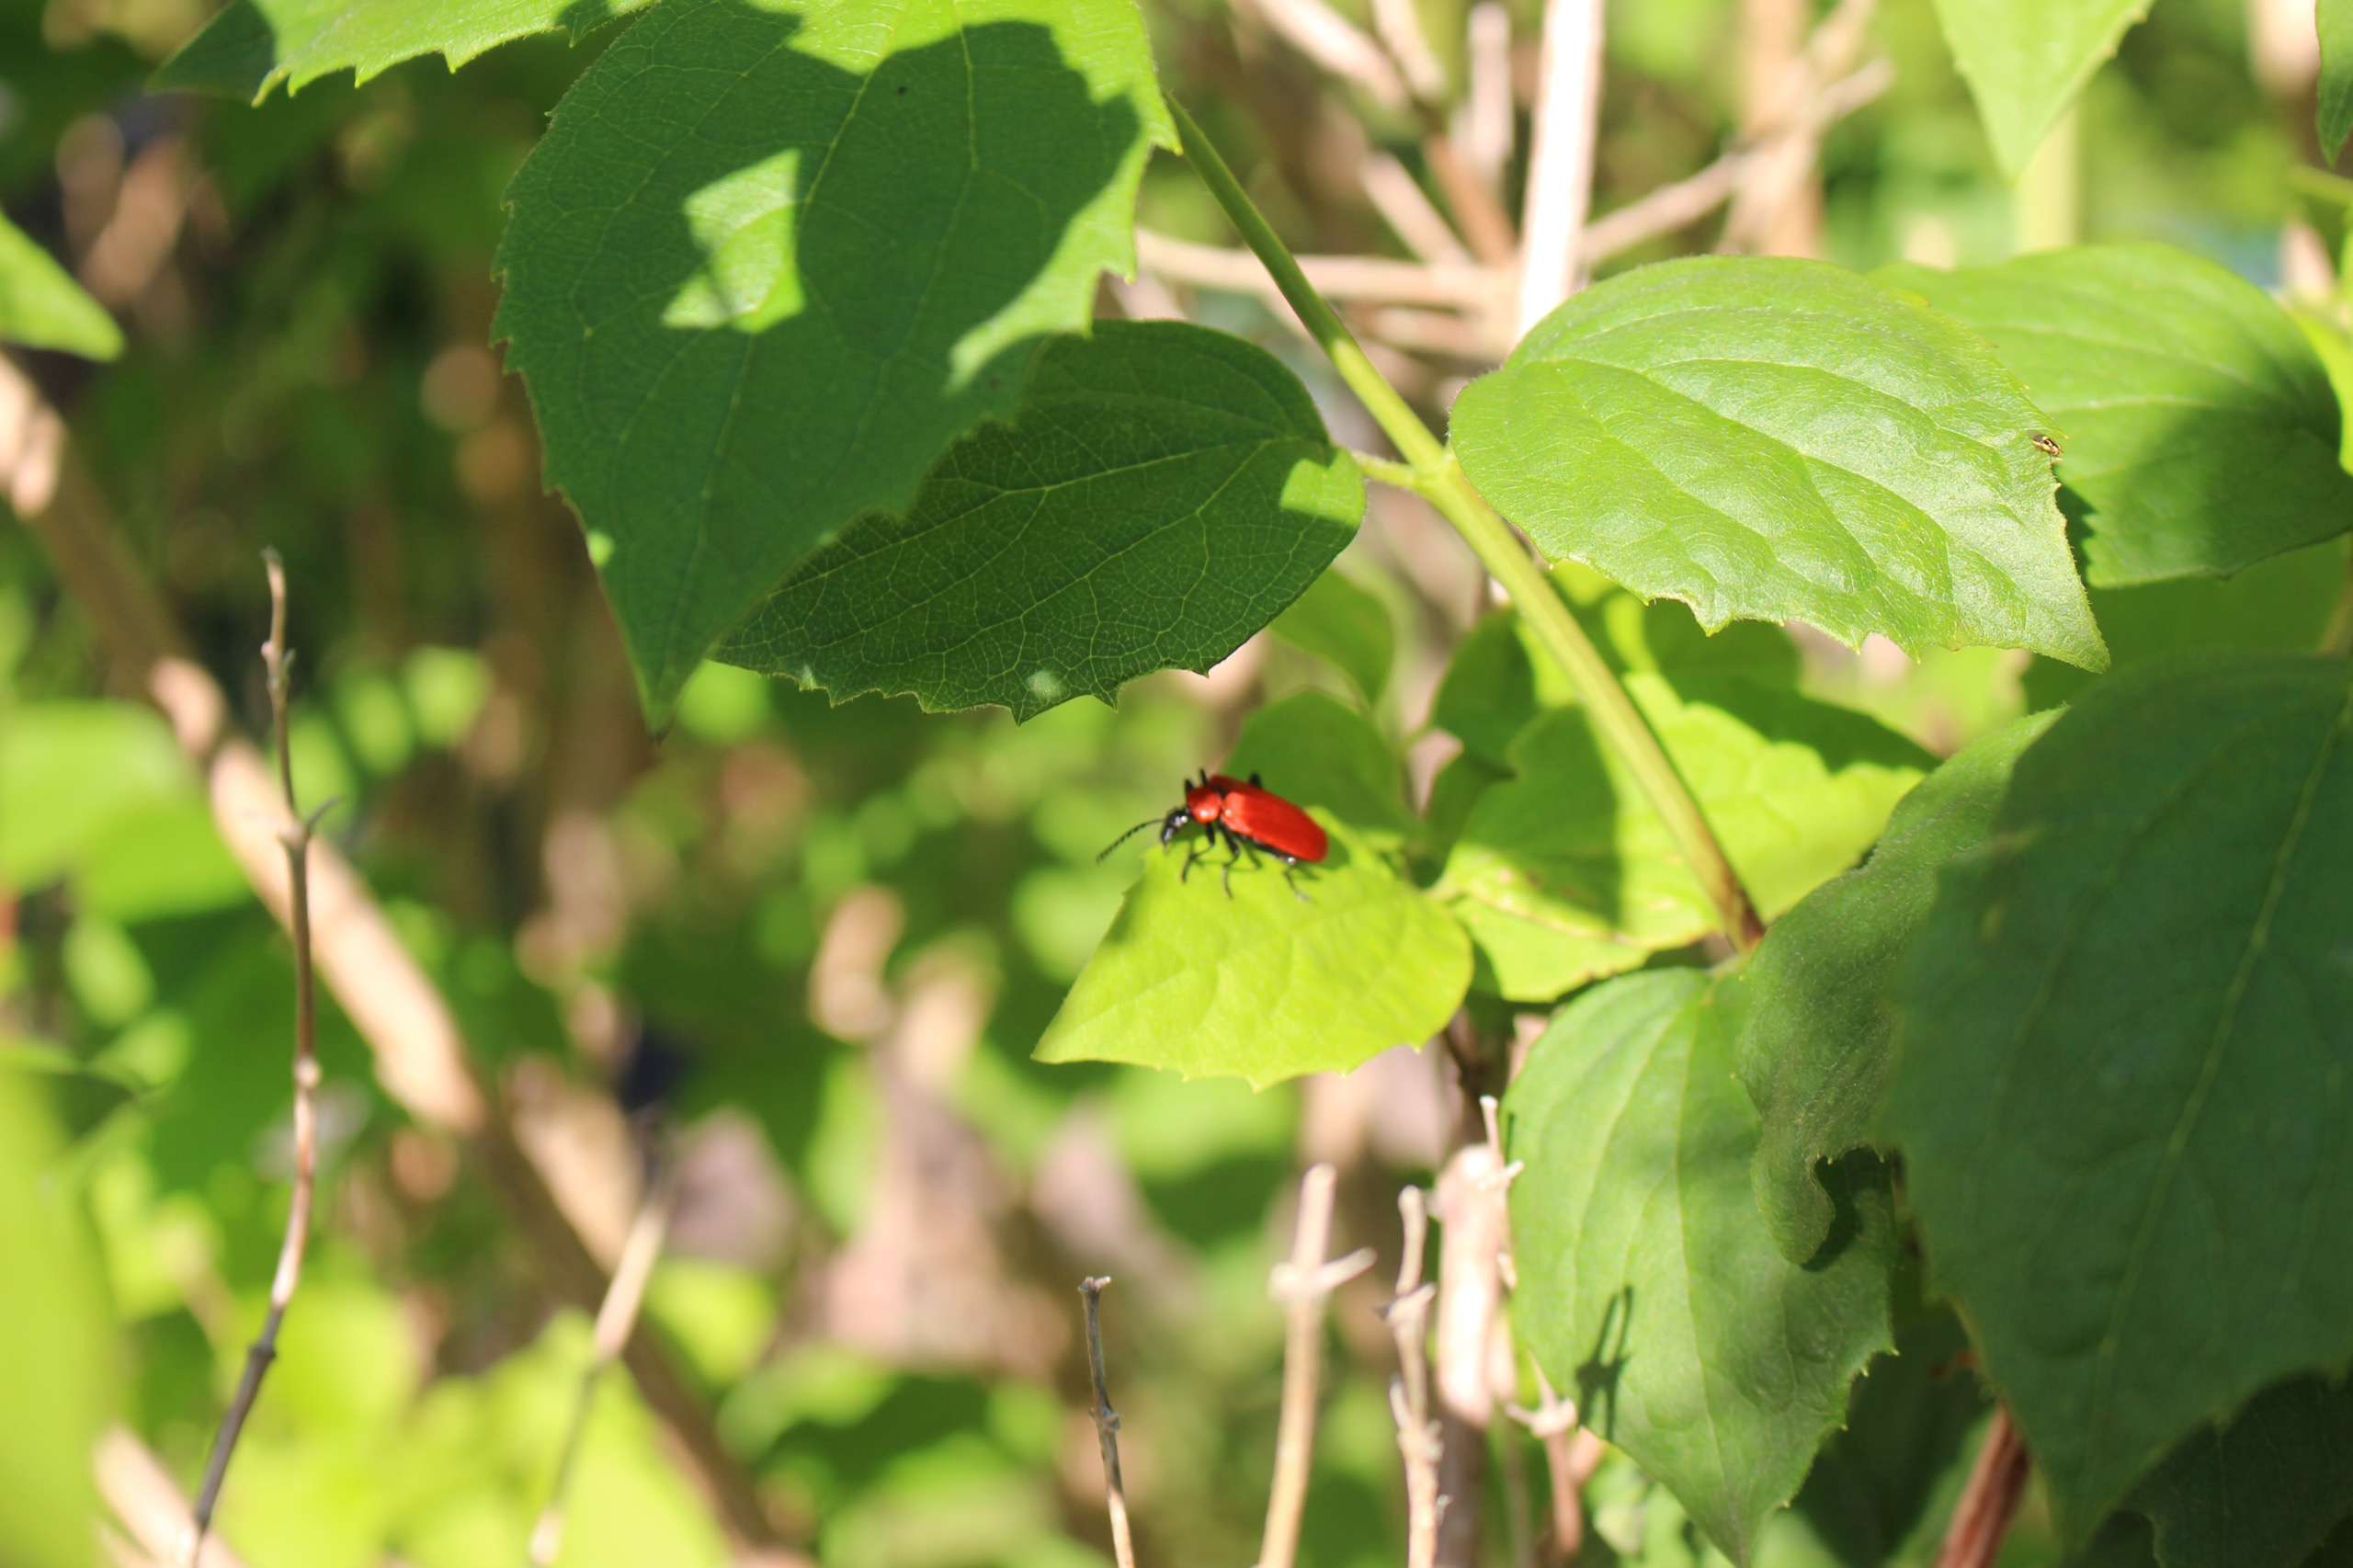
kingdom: Animalia
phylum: Arthropoda
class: Insecta
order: Coleoptera
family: Pyrochroidae
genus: Pyrochroa
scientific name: Pyrochroa coccinea
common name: Sorthovedet kardinalbille
